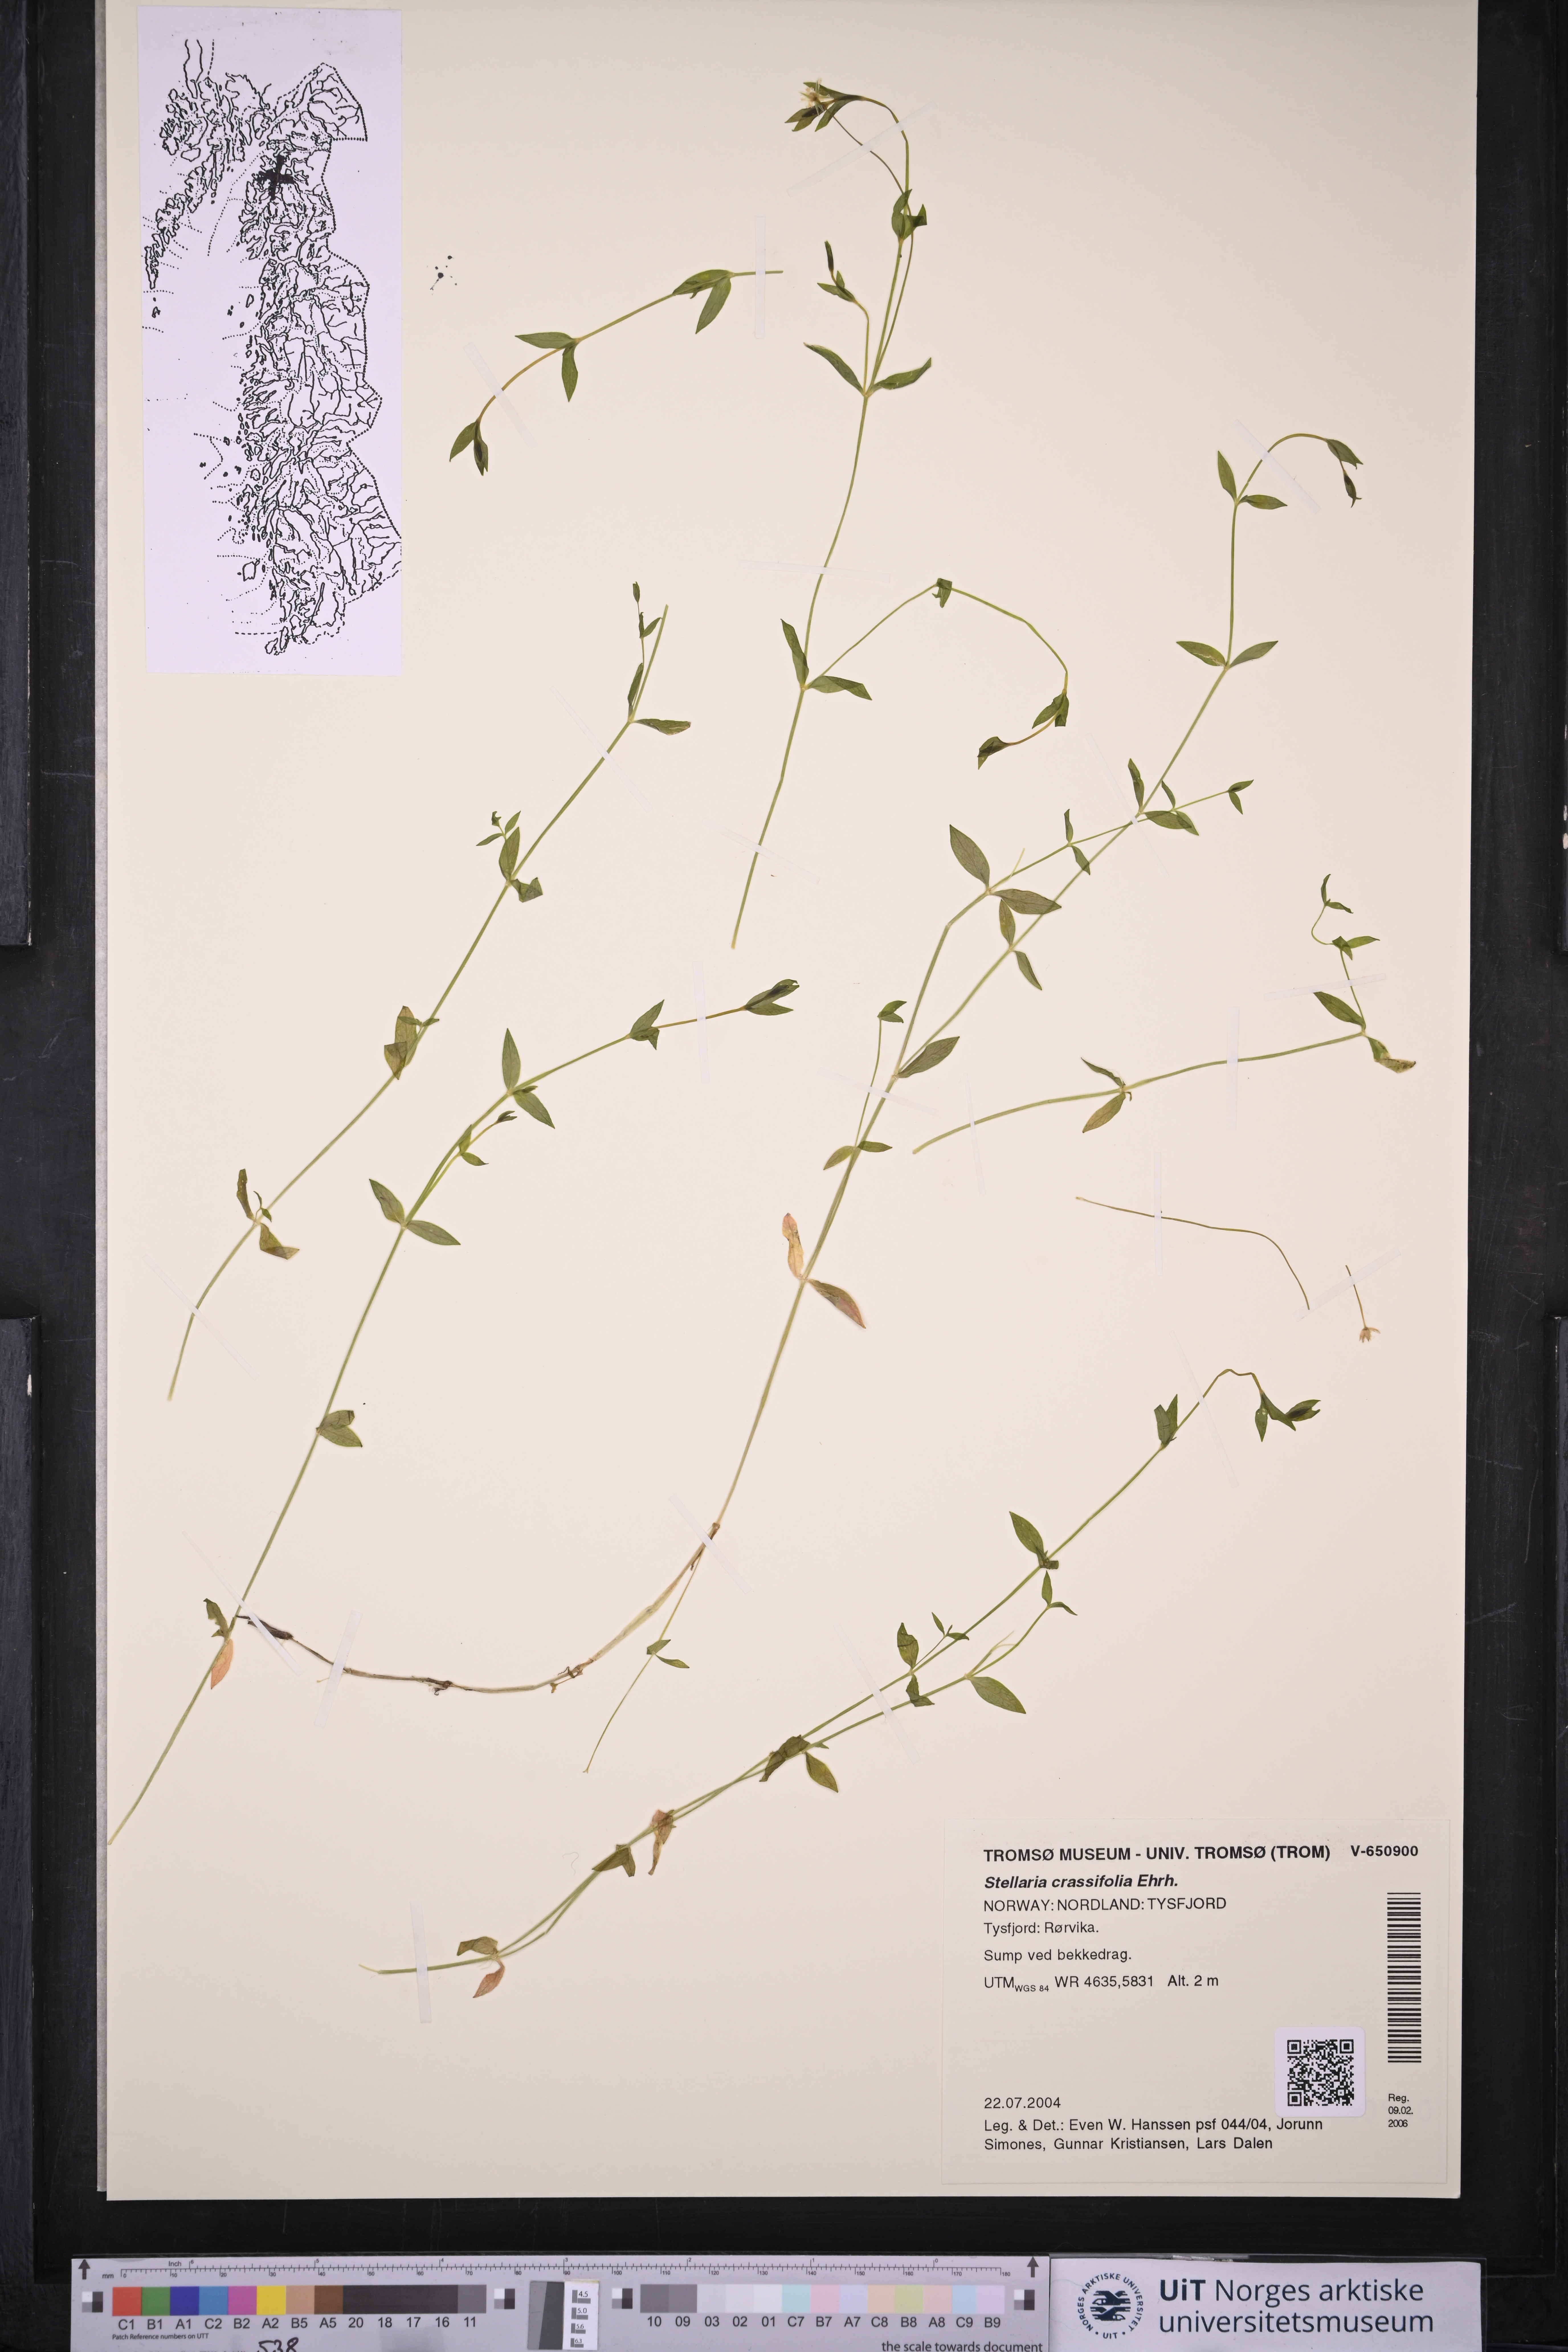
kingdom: Plantae
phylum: Tracheophyta
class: Magnoliopsida
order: Caryophyllales
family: Caryophyllaceae
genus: Stellaria
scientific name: Stellaria crassifolia
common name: Fleshy starwort
